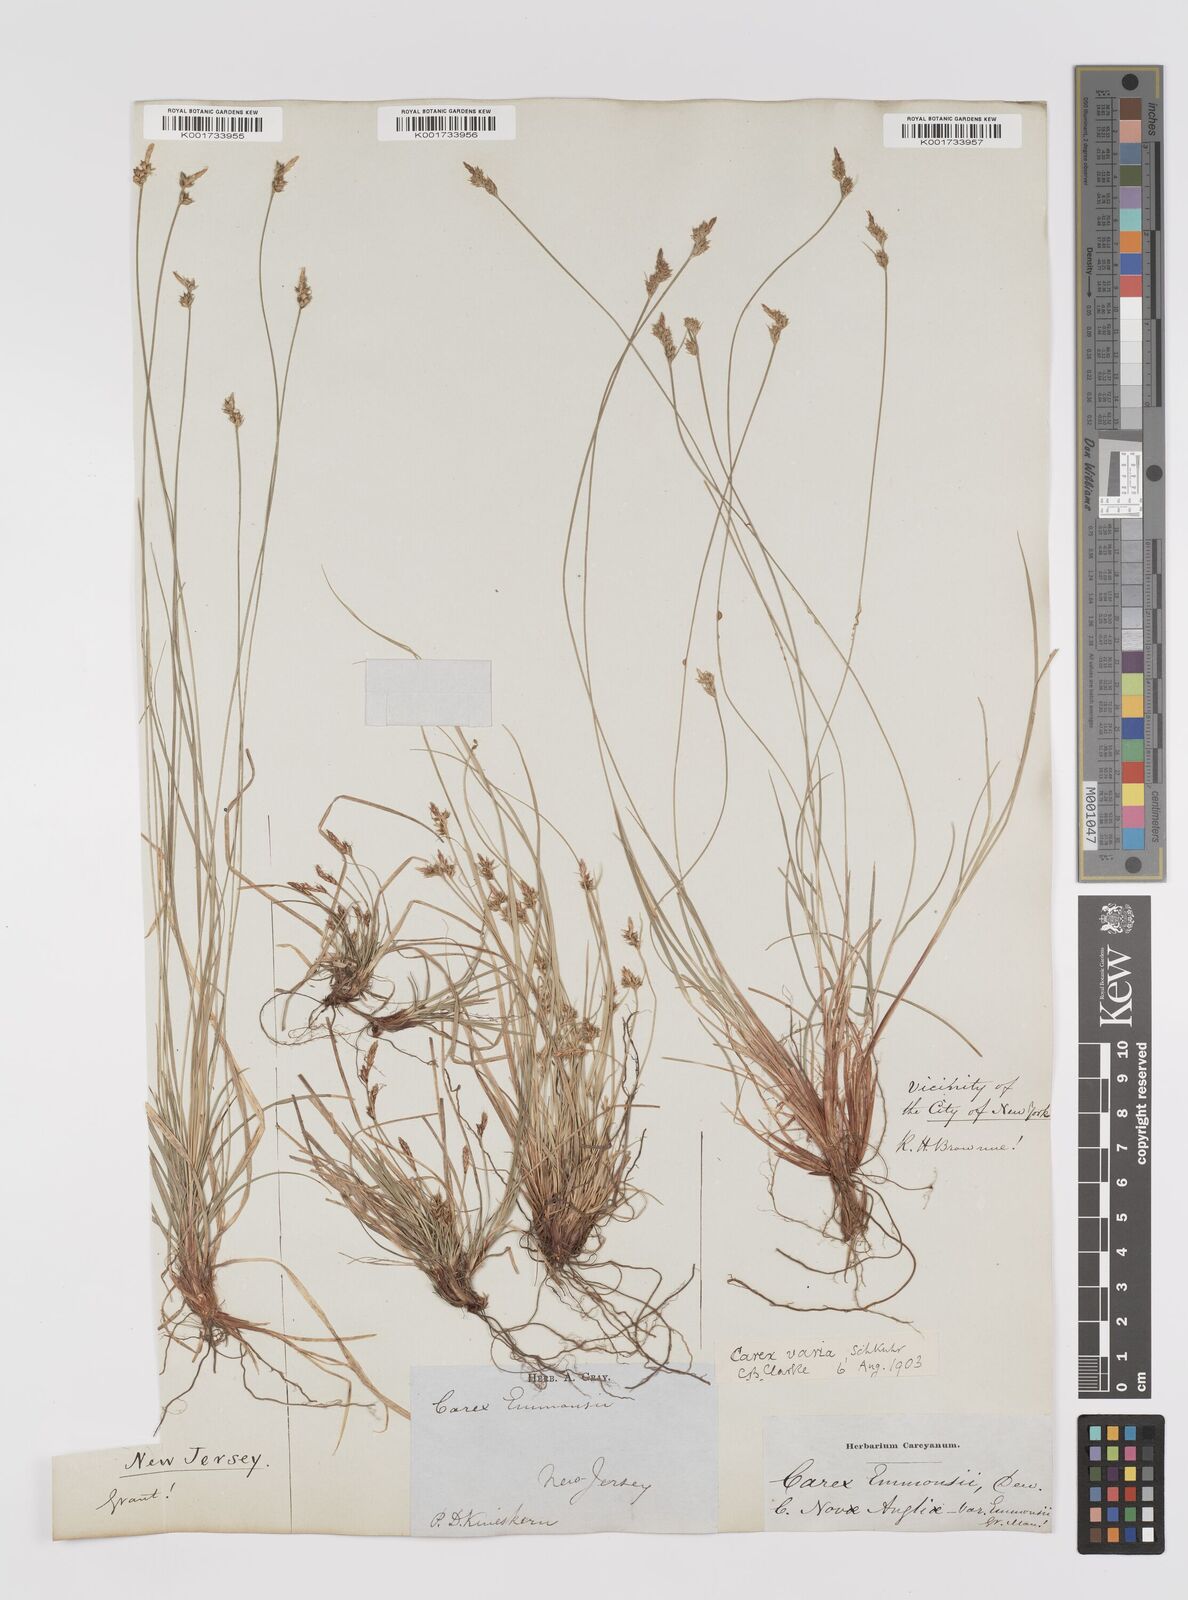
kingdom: Plantae
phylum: Tracheophyta
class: Liliopsida
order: Poales
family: Cyperaceae
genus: Carex
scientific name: Carex albicans
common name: Bellow-beaked sedge
